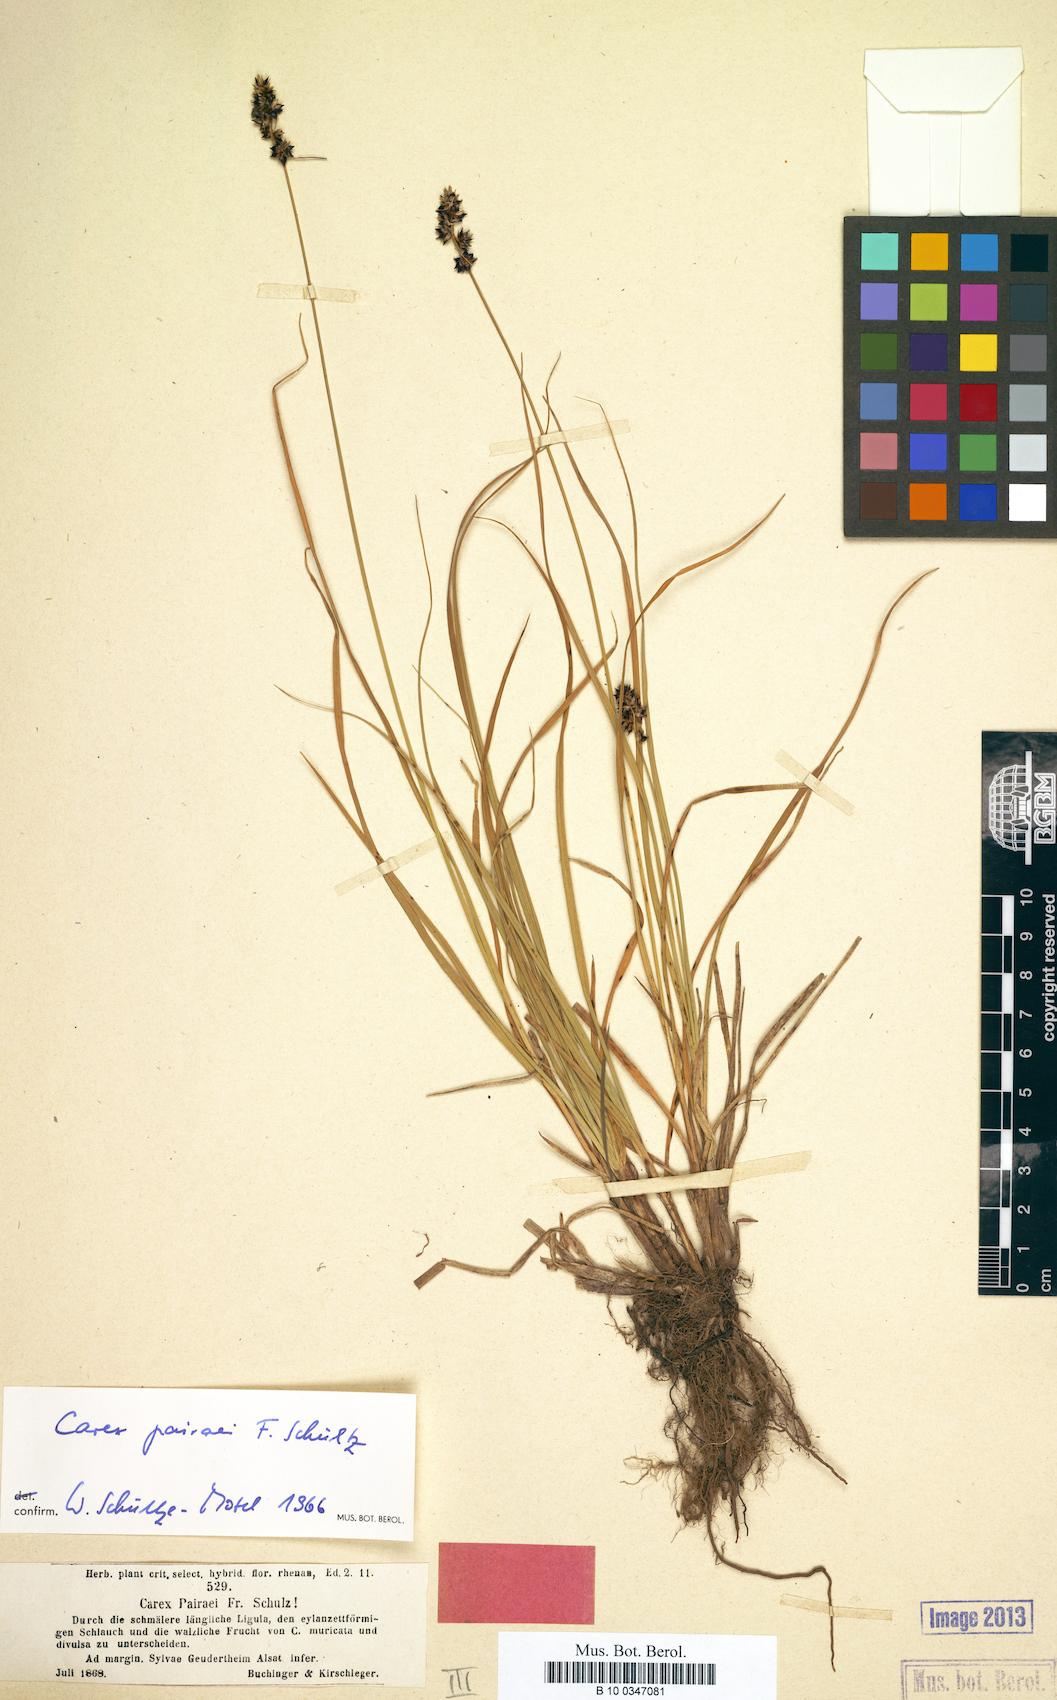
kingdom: Plantae
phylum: Tracheophyta
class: Liliopsida
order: Poales
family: Cyperaceae
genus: Carex
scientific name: Carex pairae
